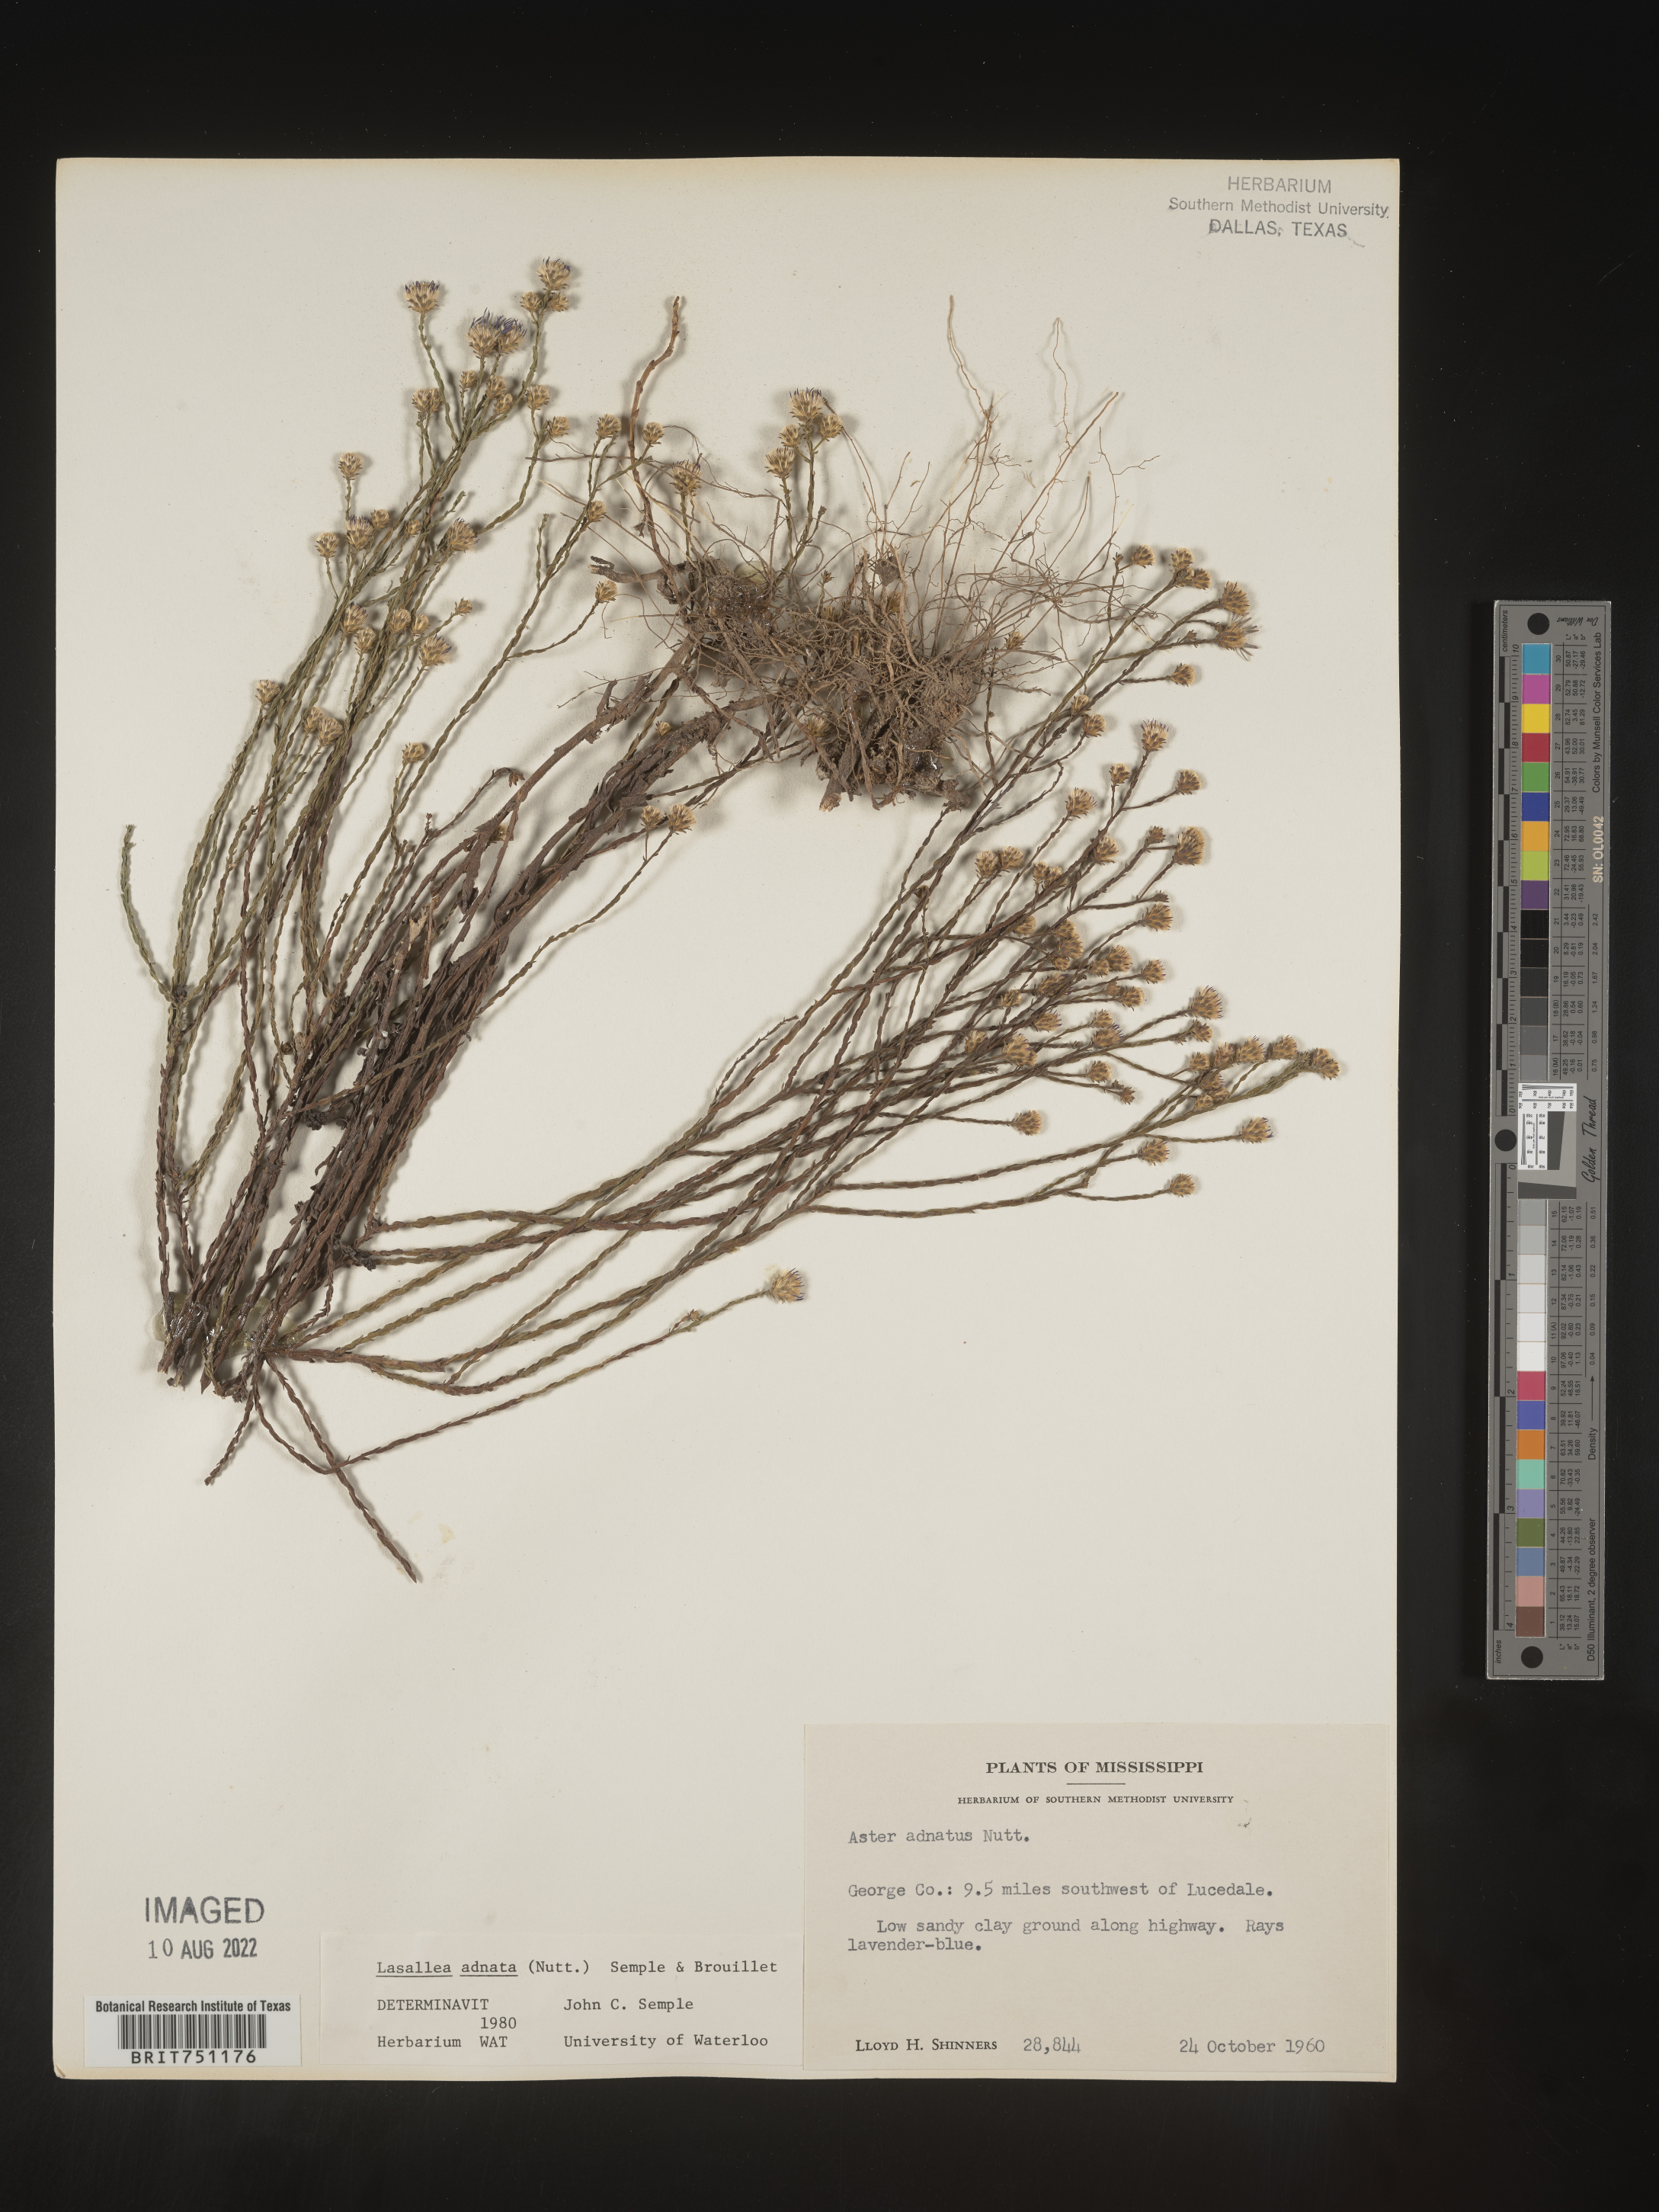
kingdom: Plantae
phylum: Tracheophyta
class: Magnoliopsida
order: Asterales
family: Asteraceae
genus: Symphyotrichum
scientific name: Symphyotrichum adnatum
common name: Scale-leaf aster
